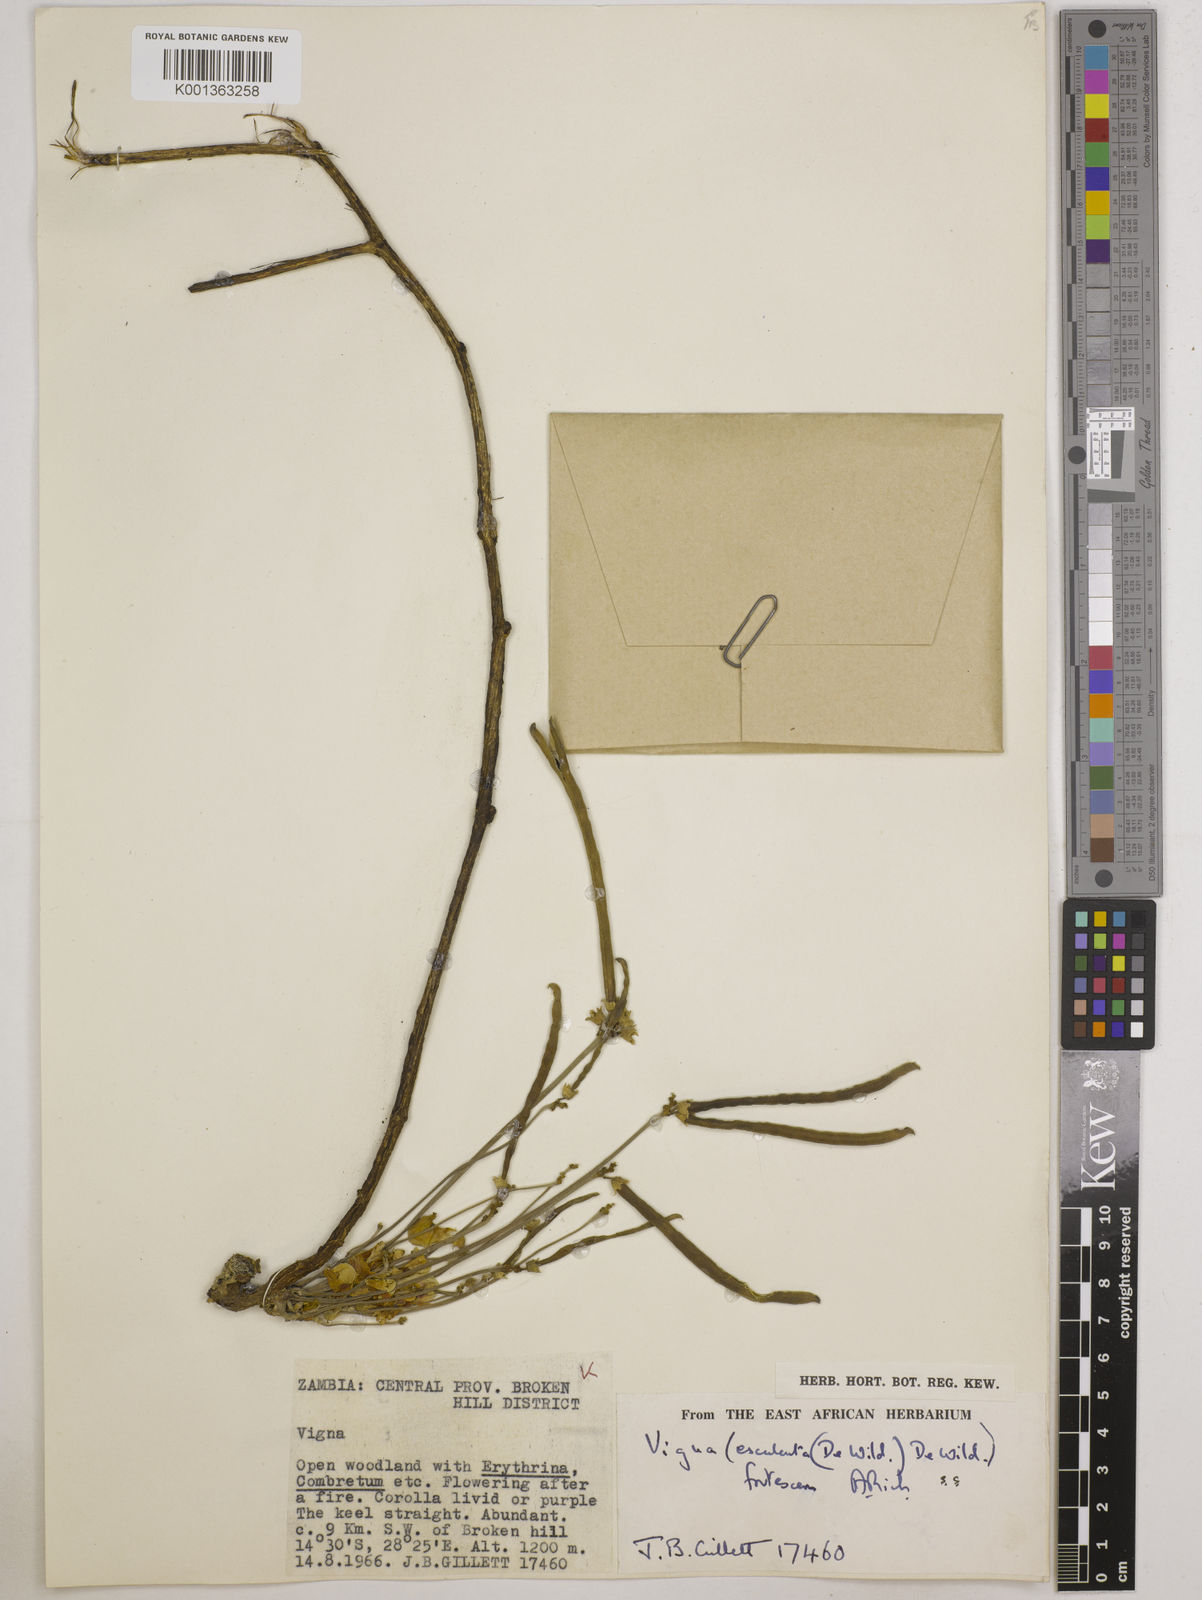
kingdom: Plantae
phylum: Tracheophyta
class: Magnoliopsida
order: Fabales
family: Fabaceae
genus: Vigna
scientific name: Vigna
